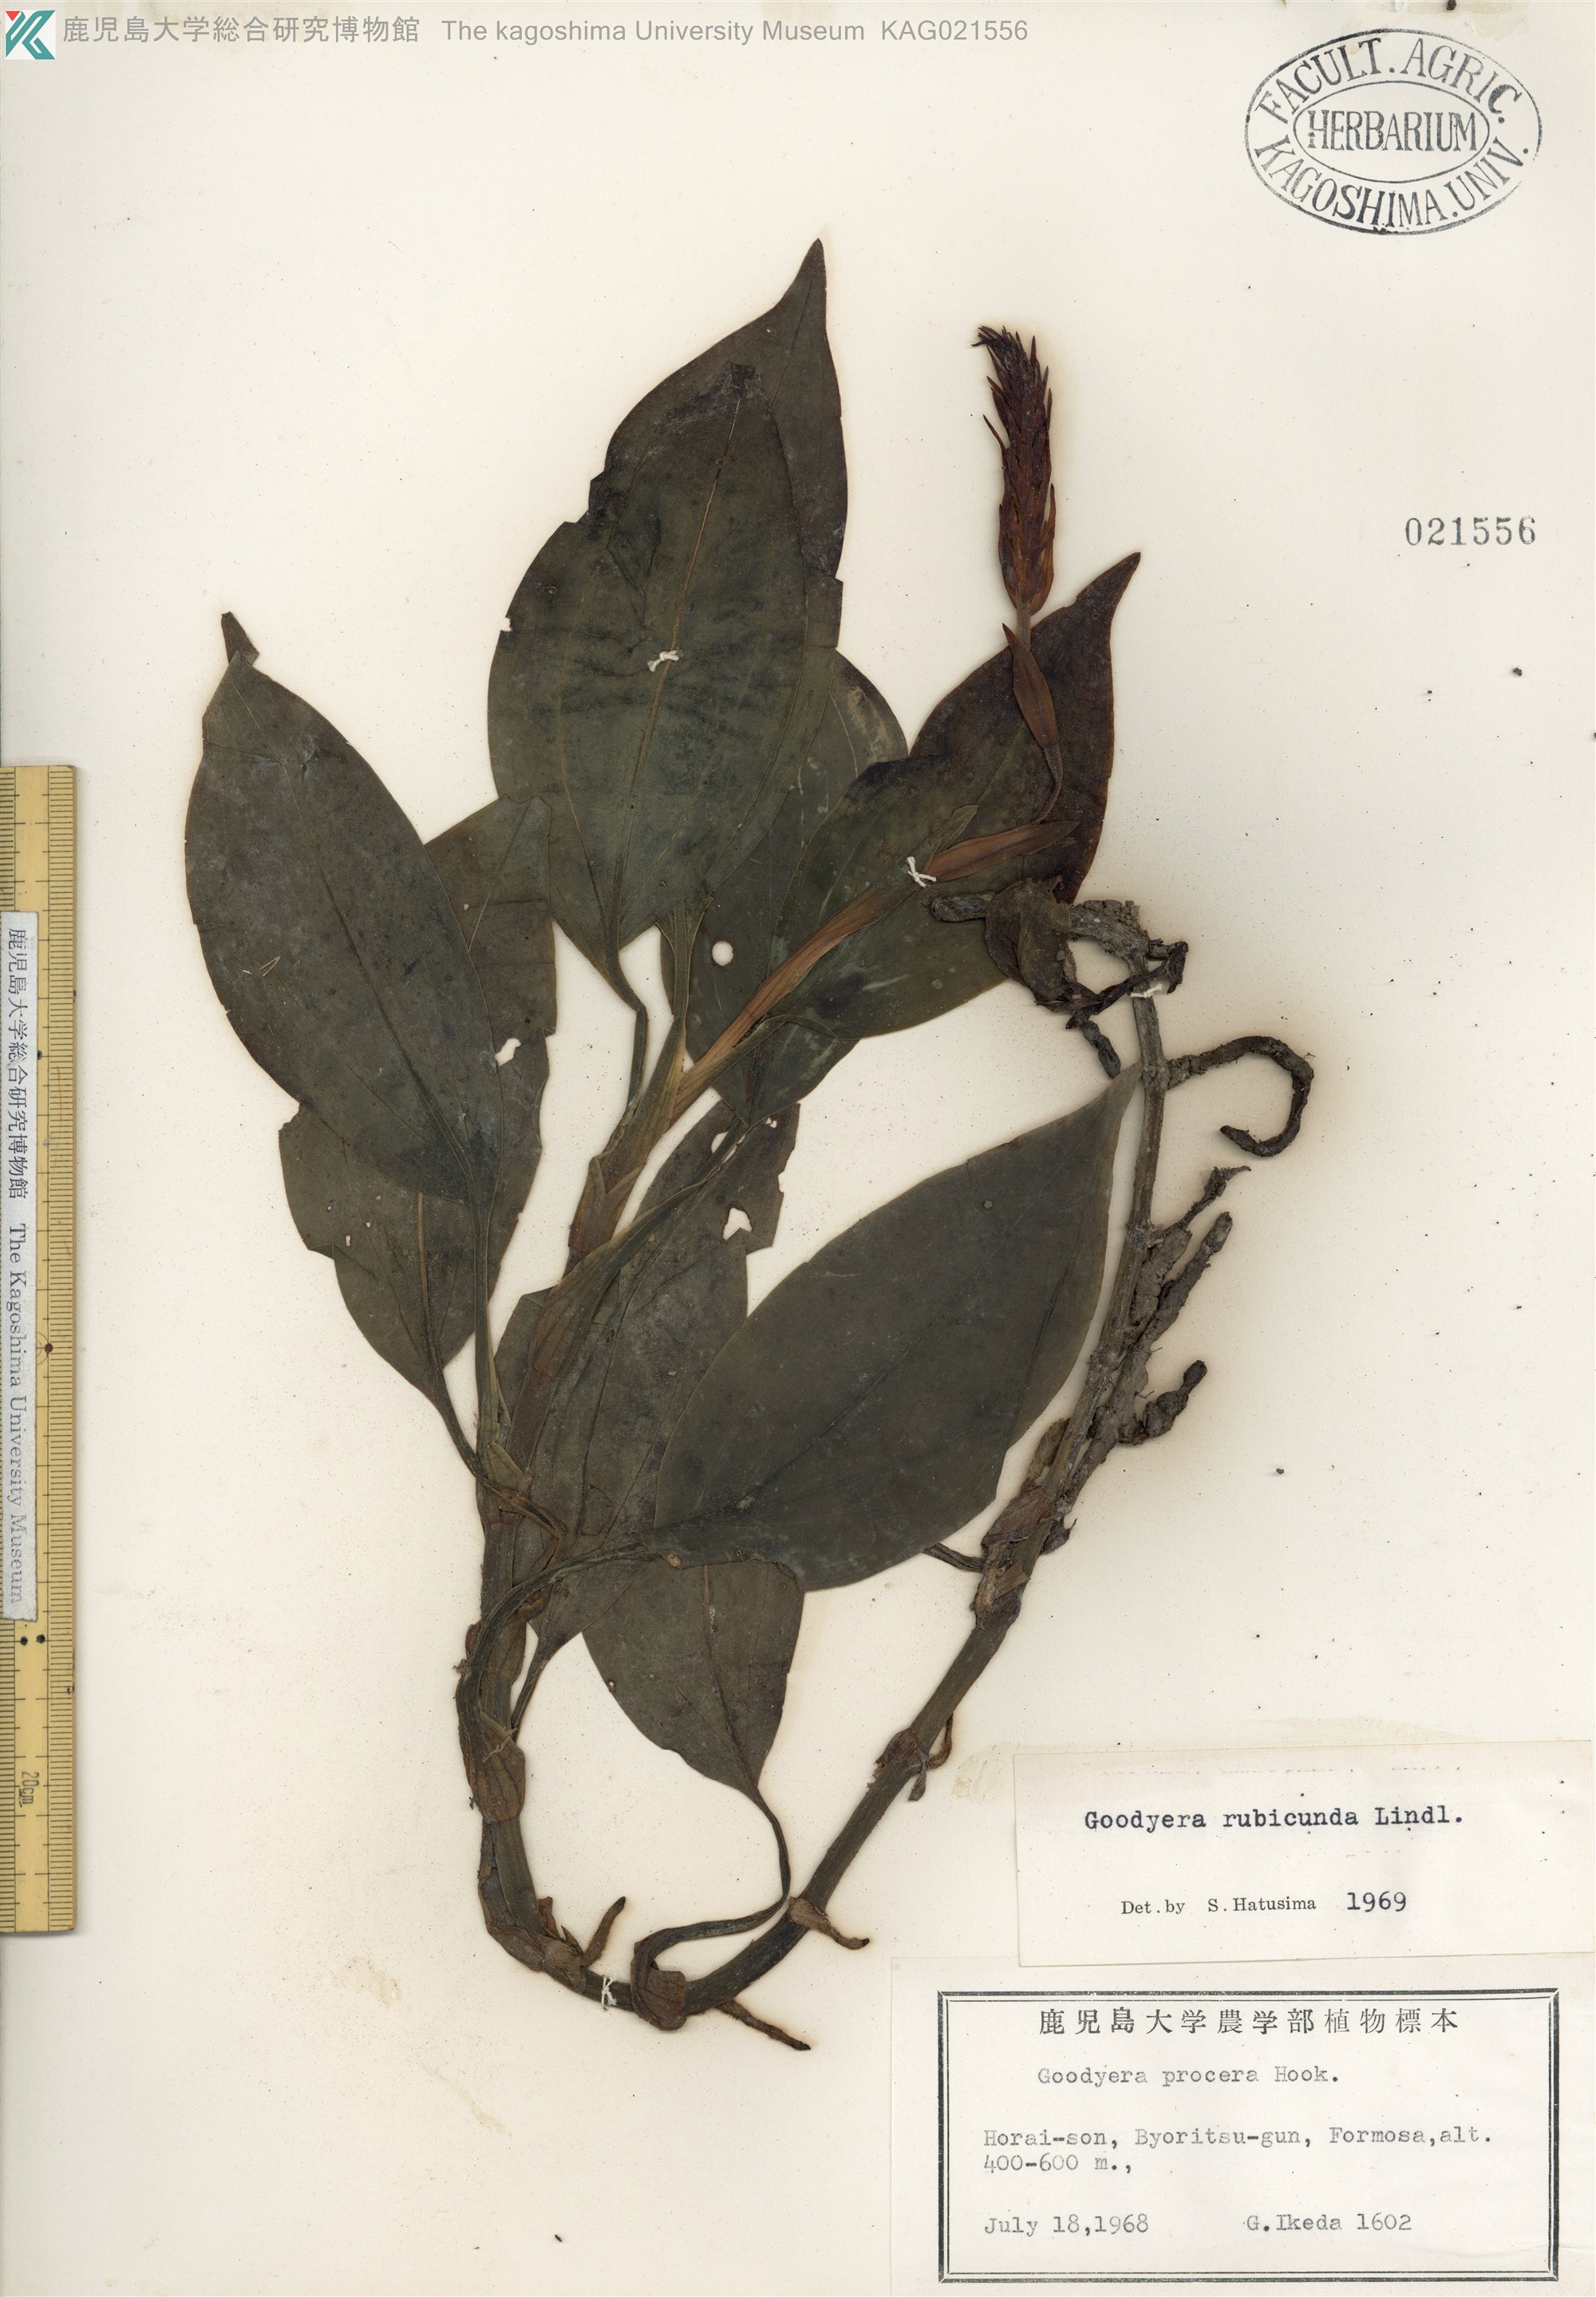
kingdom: Plantae
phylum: Tracheophyta
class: Liliopsida
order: Asparagales
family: Orchidaceae
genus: Goodyera
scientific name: Goodyera rubicunda
